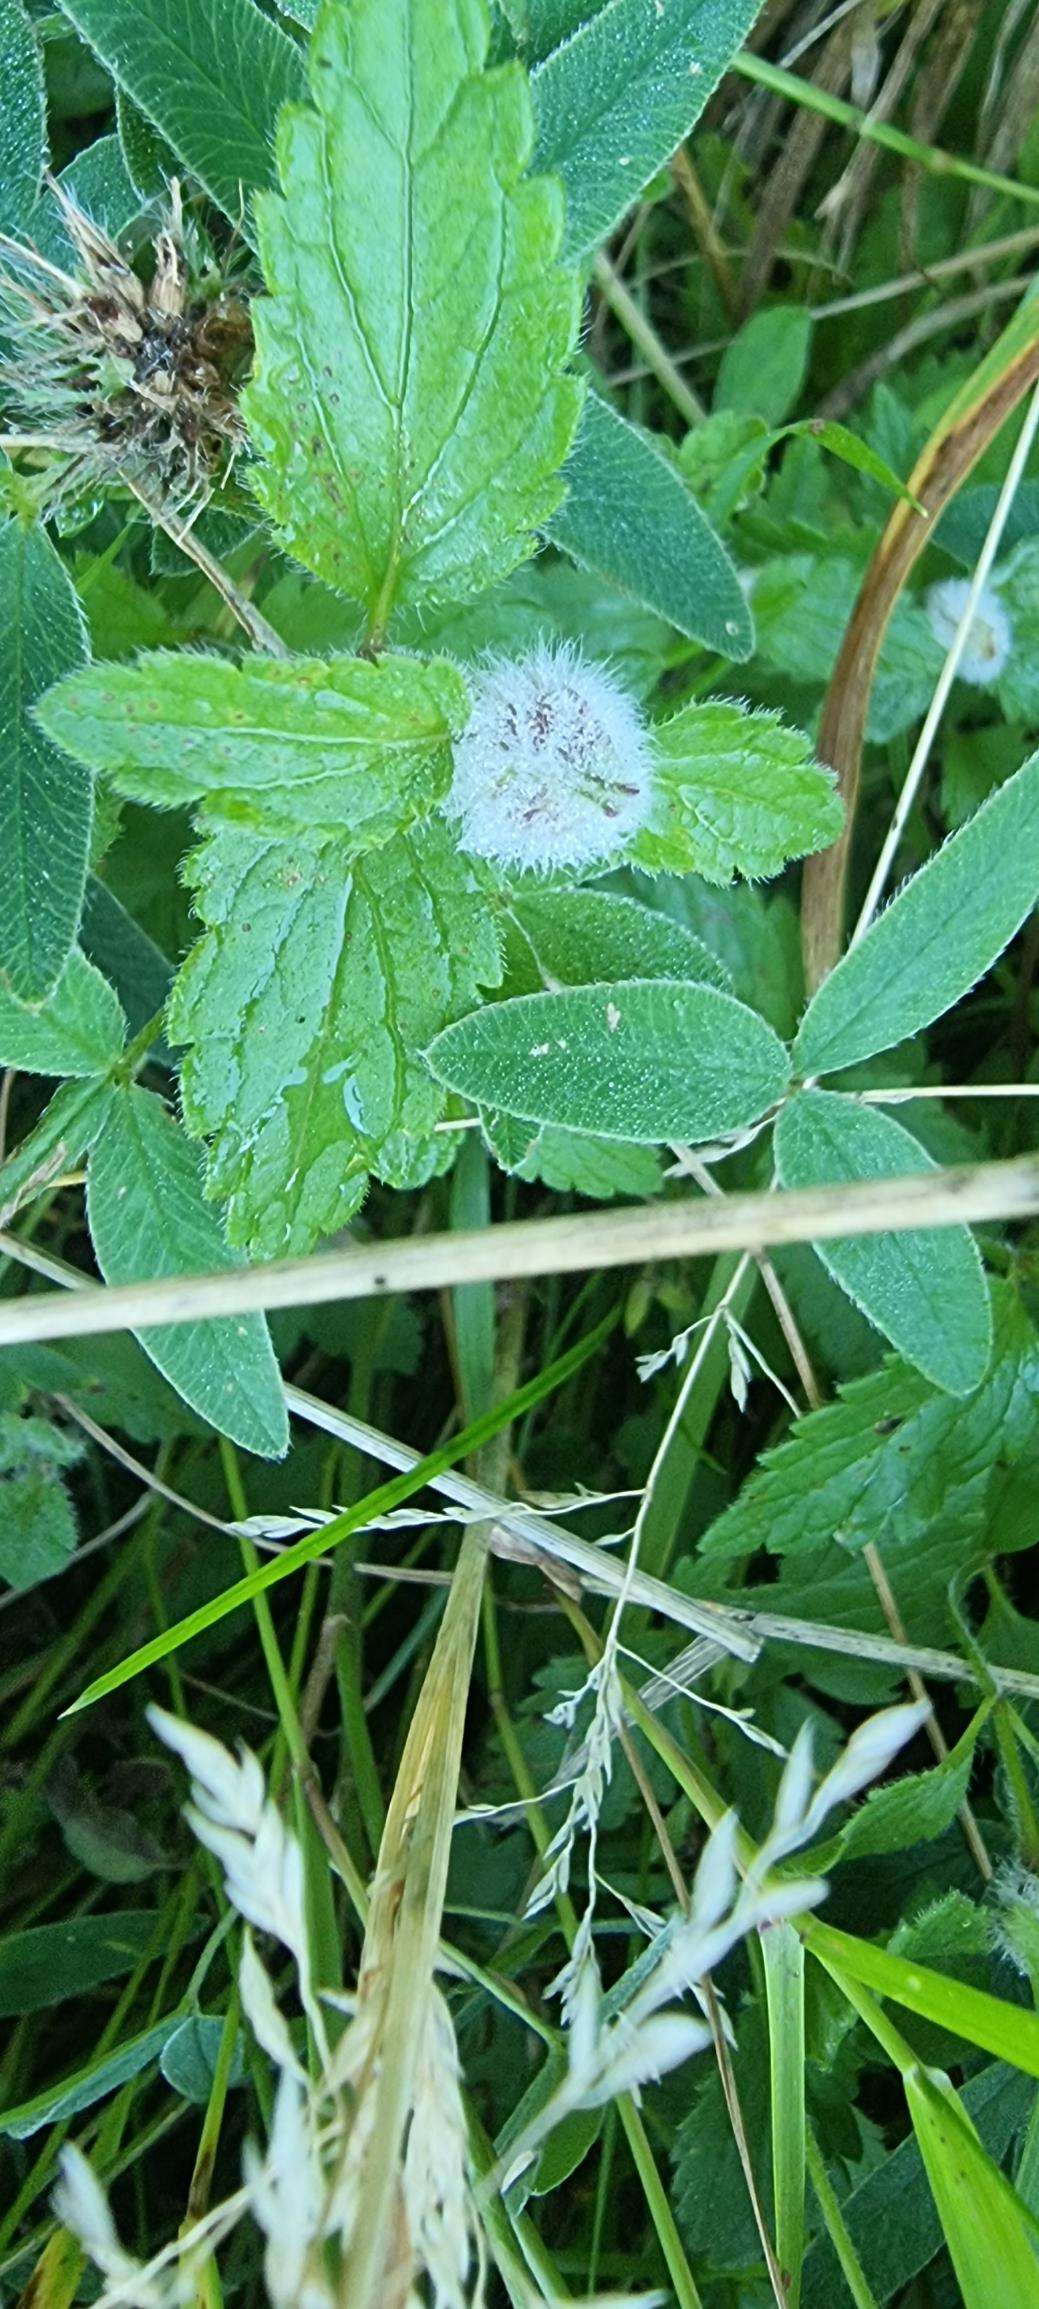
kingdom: Animalia
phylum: Arthropoda
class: Insecta
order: Diptera
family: Cecidomyiidae
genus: Jaapiella
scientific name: Jaapiella veronicae
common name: Ærenprisgalmyg
